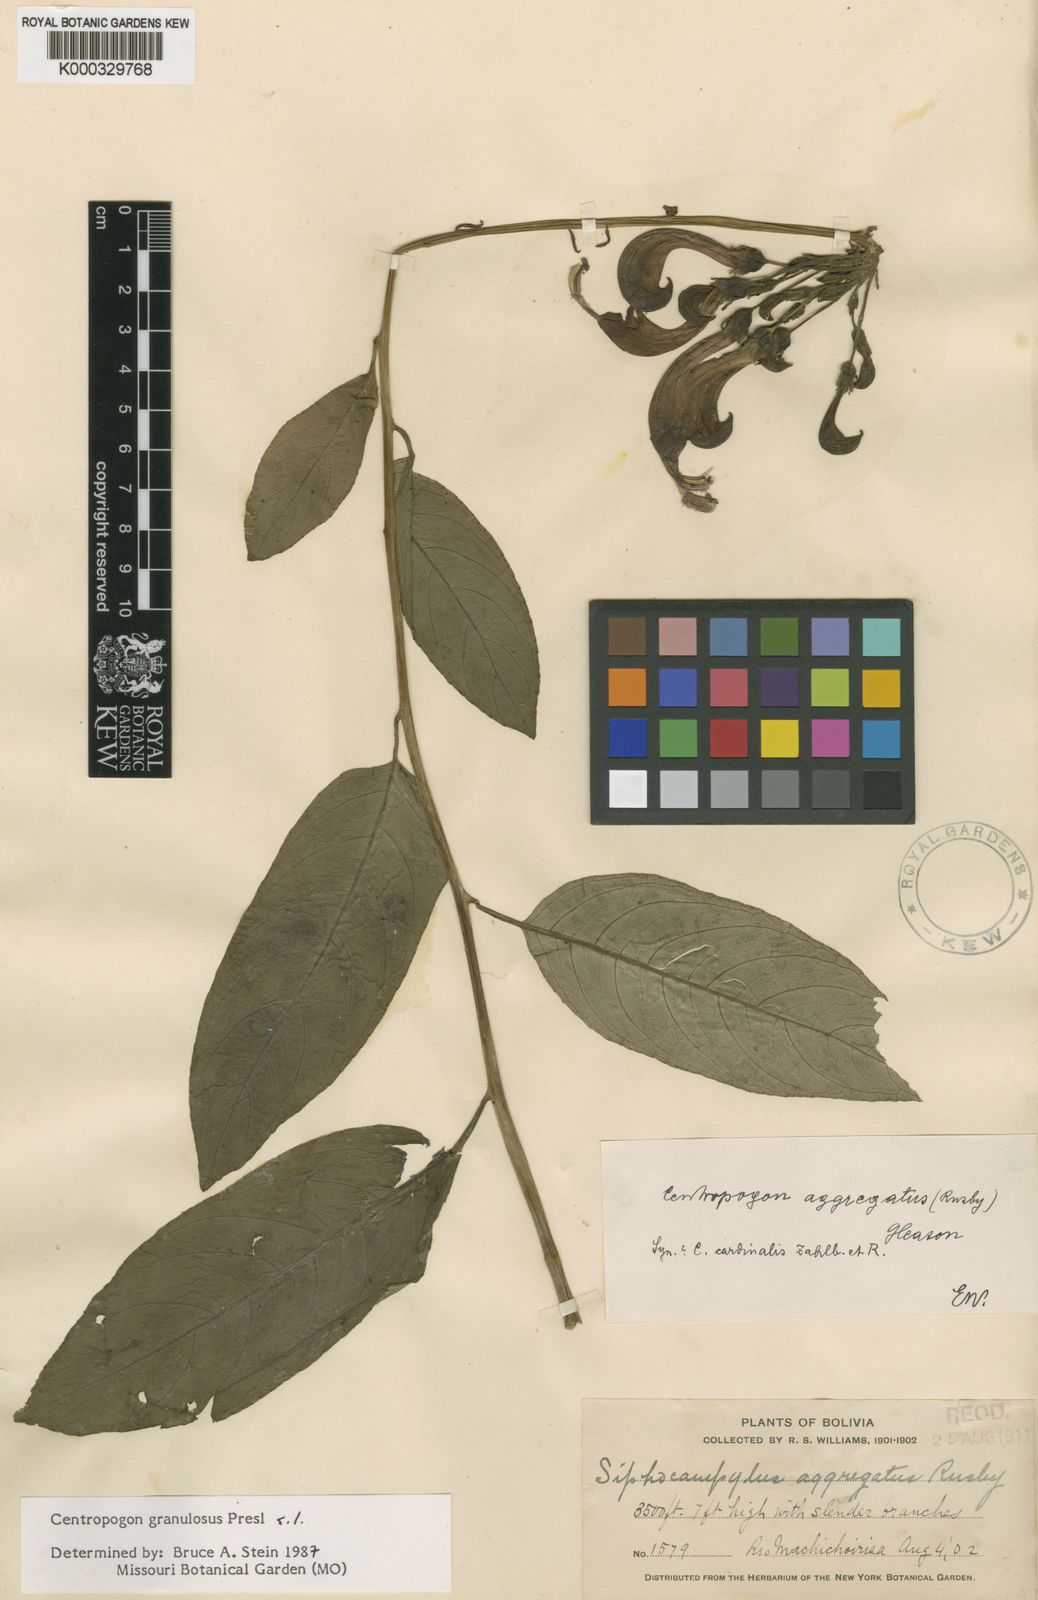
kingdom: Plantae
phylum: Tracheophyta
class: Magnoliopsida
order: Asterales
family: Campanulaceae
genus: Centropogon
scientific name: Centropogon
